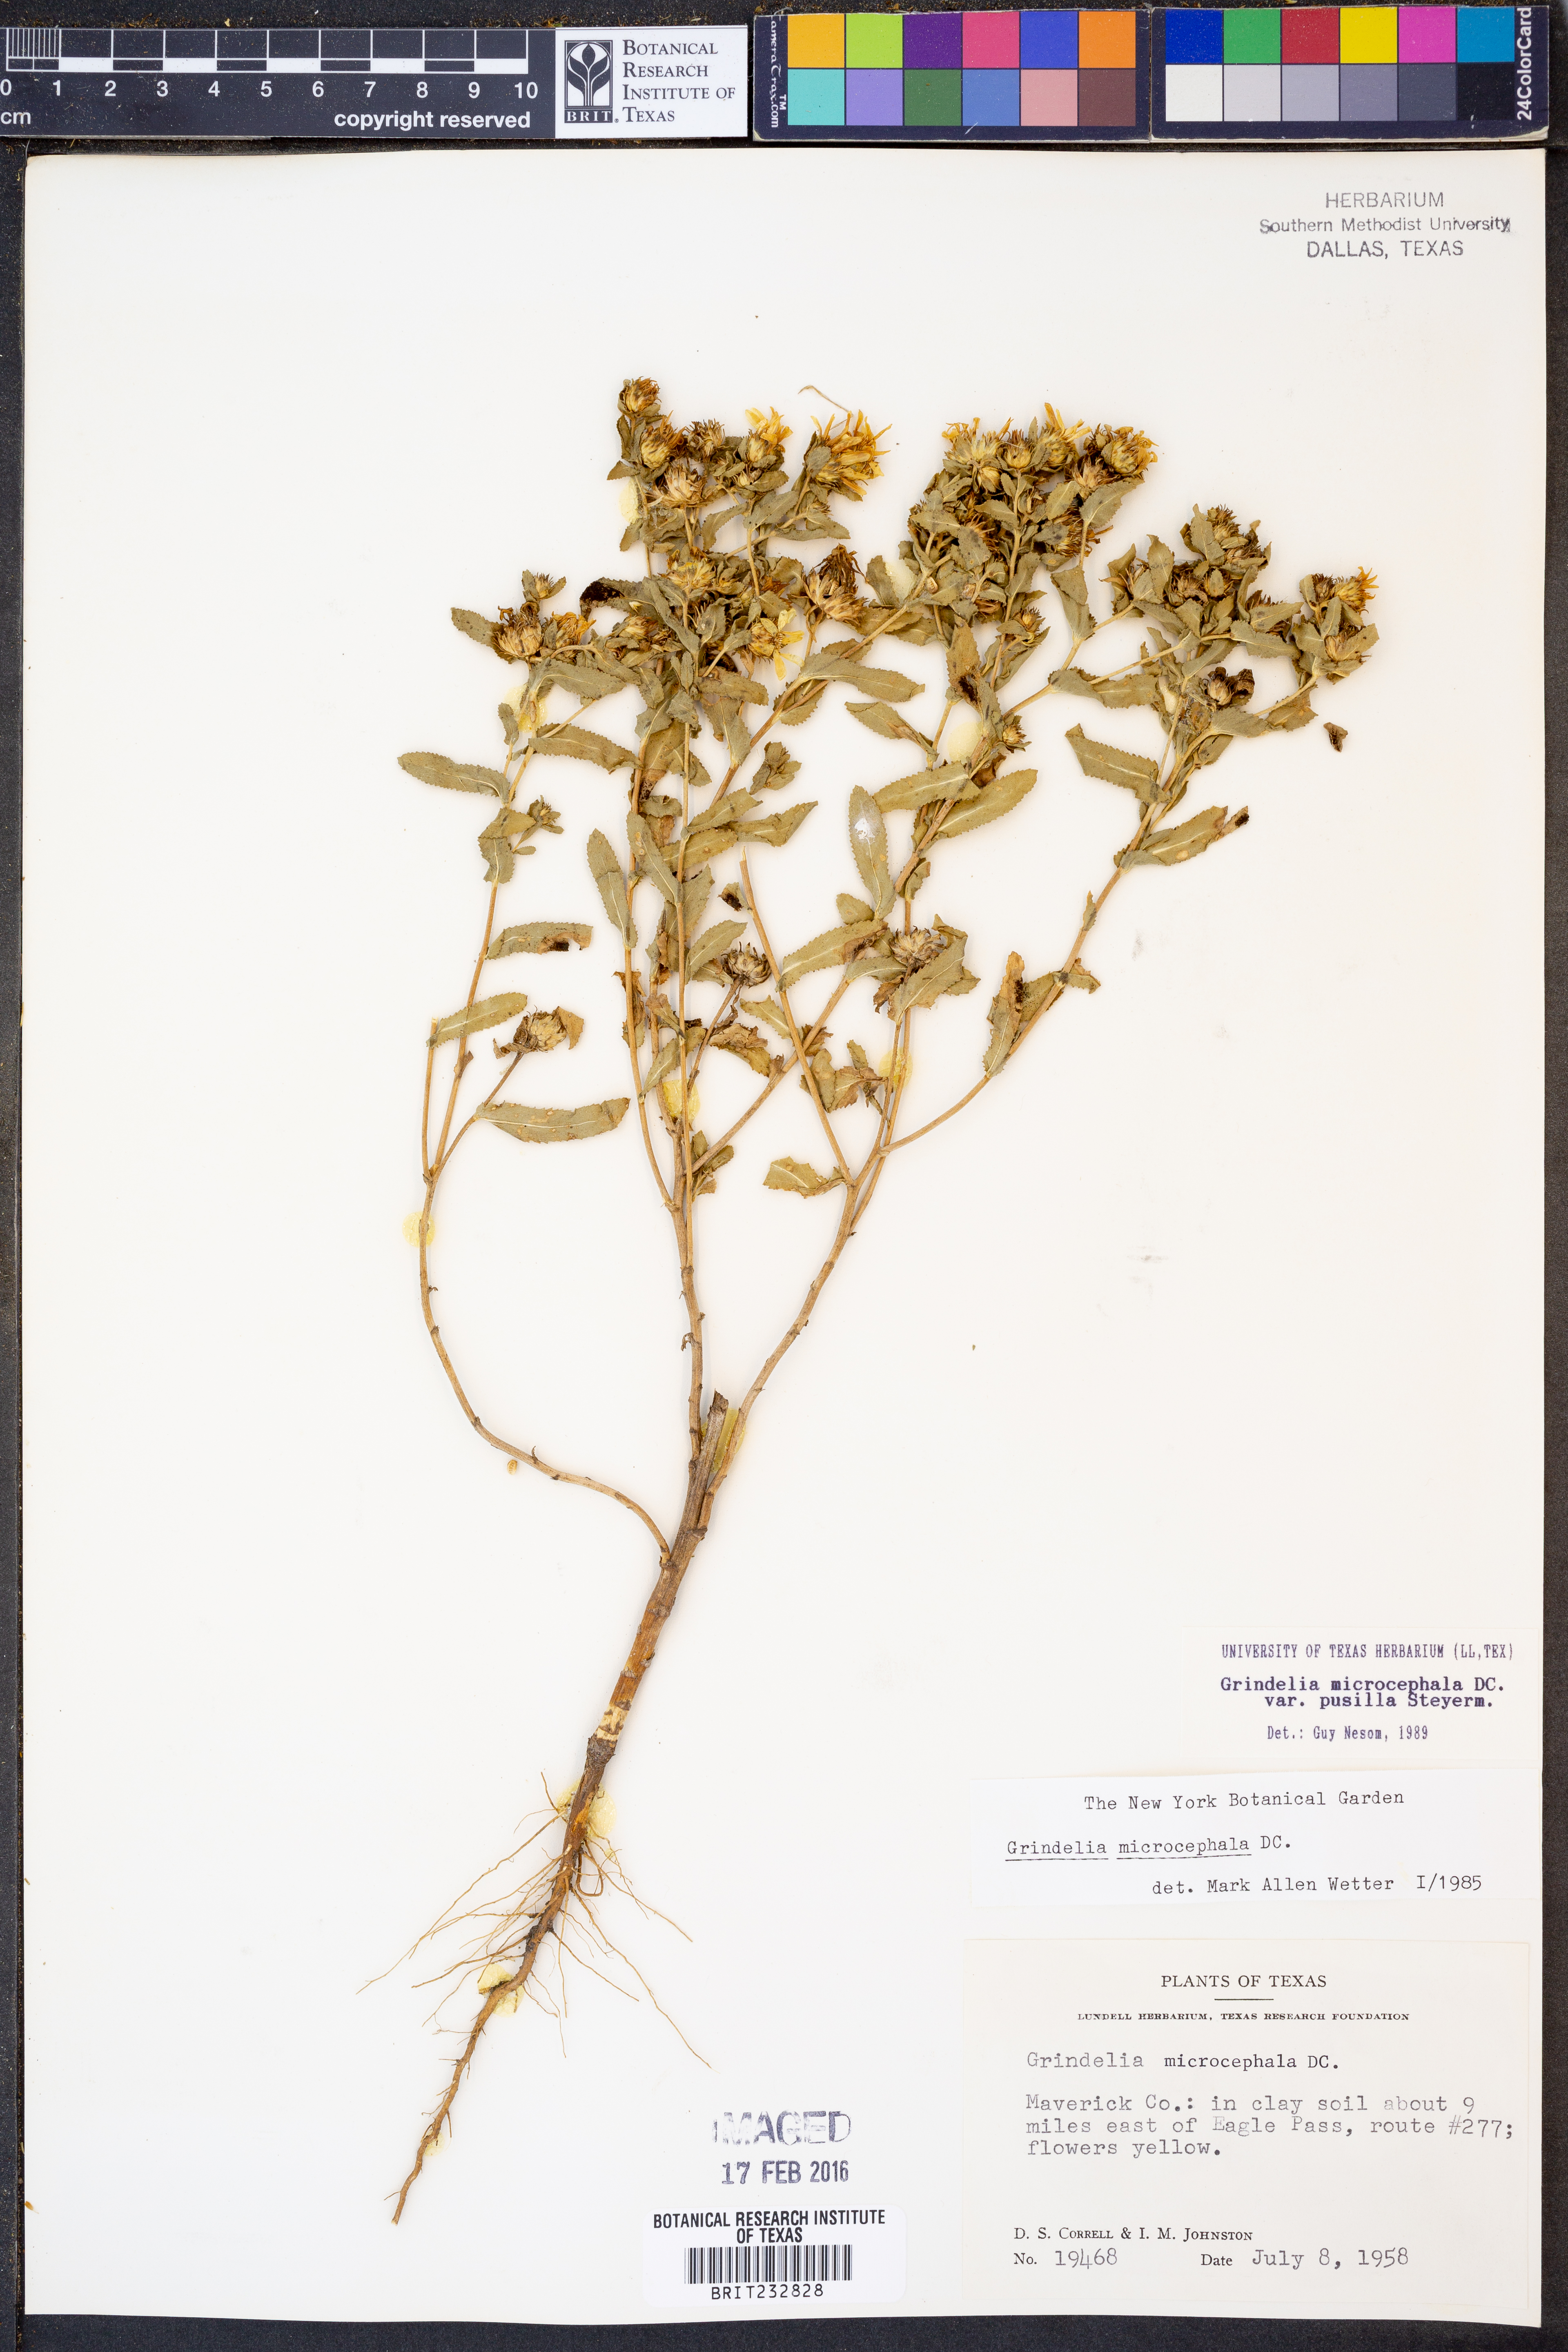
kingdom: Plantae
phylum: Tracheophyta
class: Magnoliopsida
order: Asterales
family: Asteraceae
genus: Grindelia
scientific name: Grindelia pusilla
